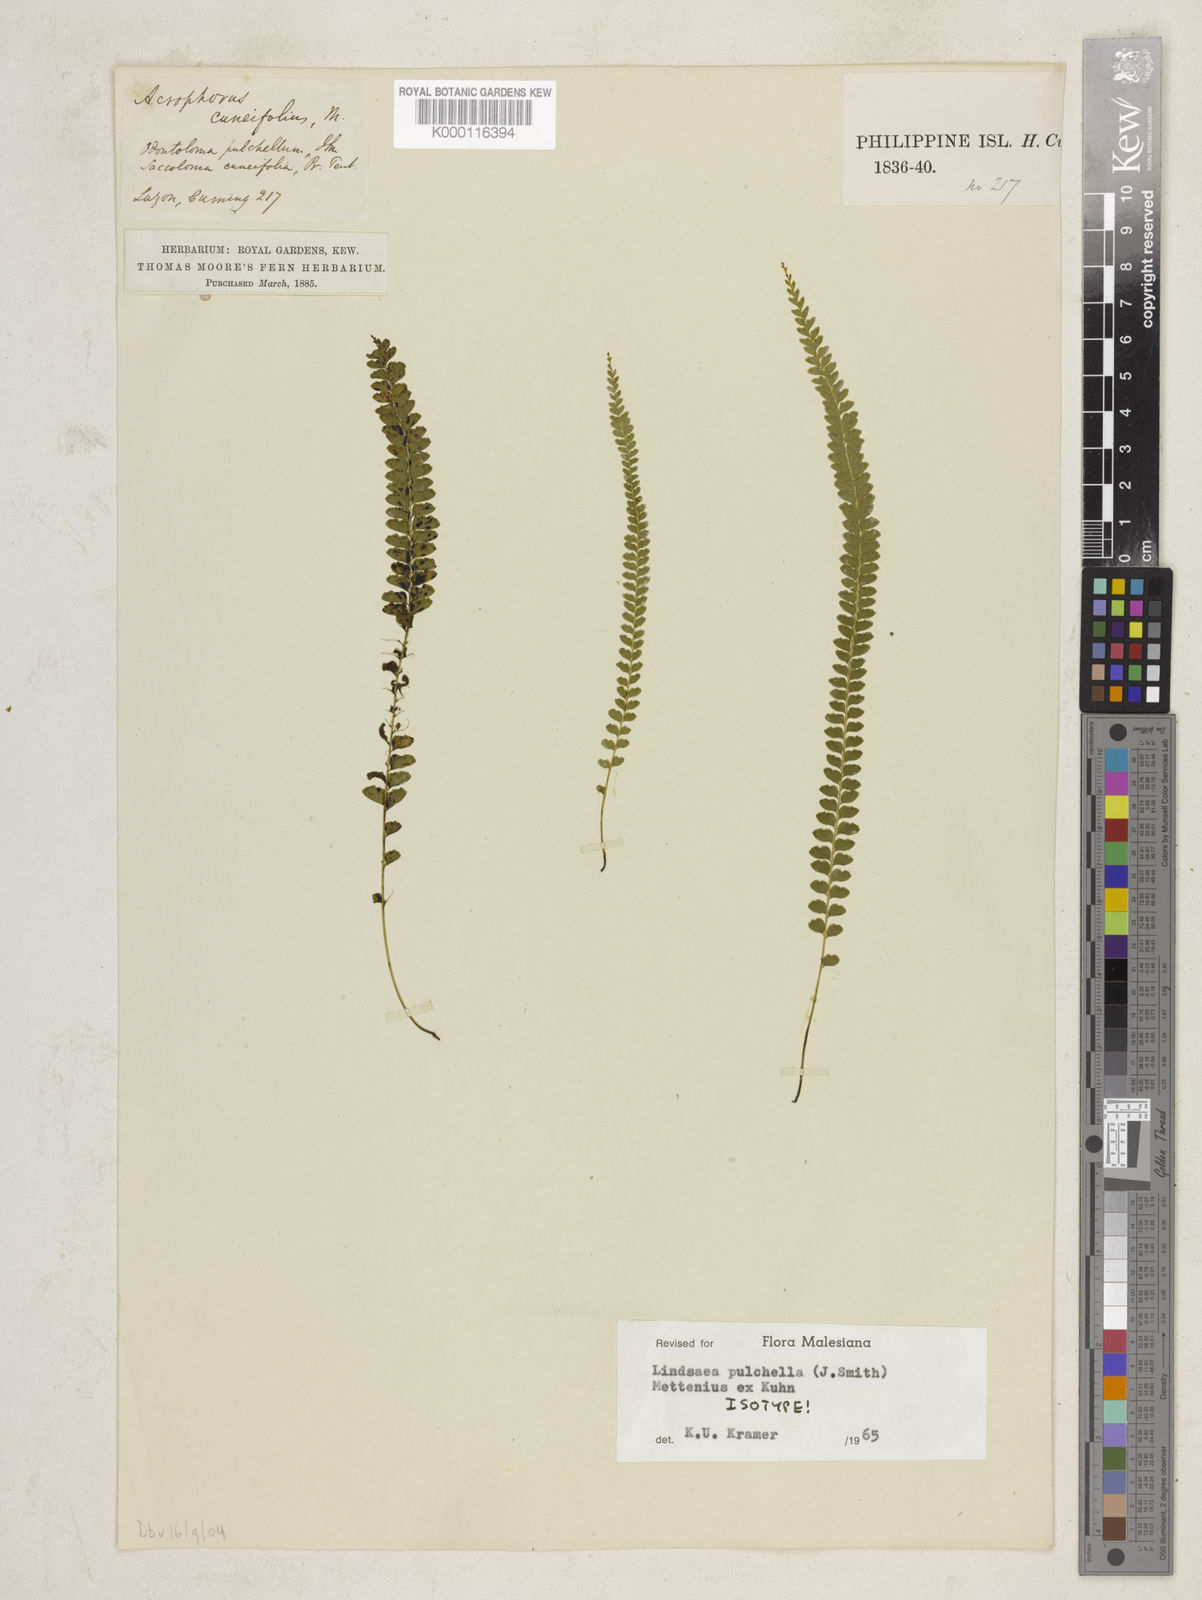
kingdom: Plantae
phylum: Tracheophyta
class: Polypodiopsida
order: Polypodiales
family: Lindsaeaceae
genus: Lindsaea
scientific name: Lindsaea
